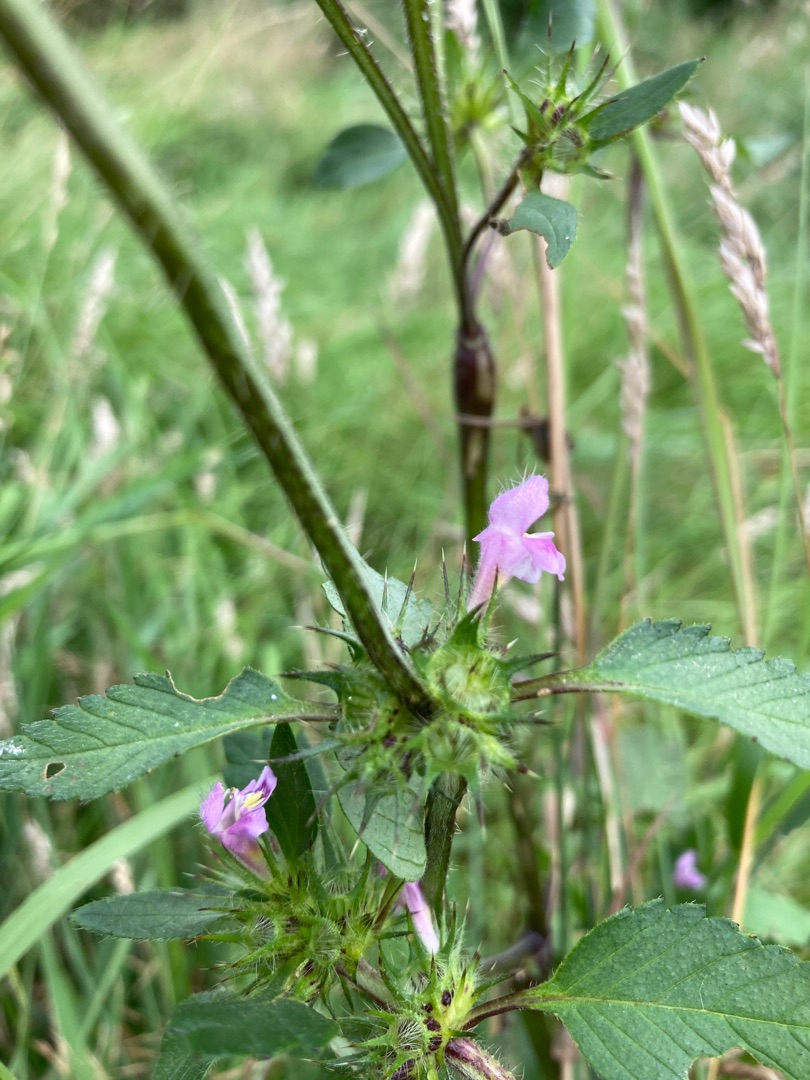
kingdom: Plantae
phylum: Tracheophyta
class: Magnoliopsida
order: Lamiales
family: Lamiaceae
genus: Galeopsis
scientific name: Galeopsis tetrahit
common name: Almindelig hanekro
